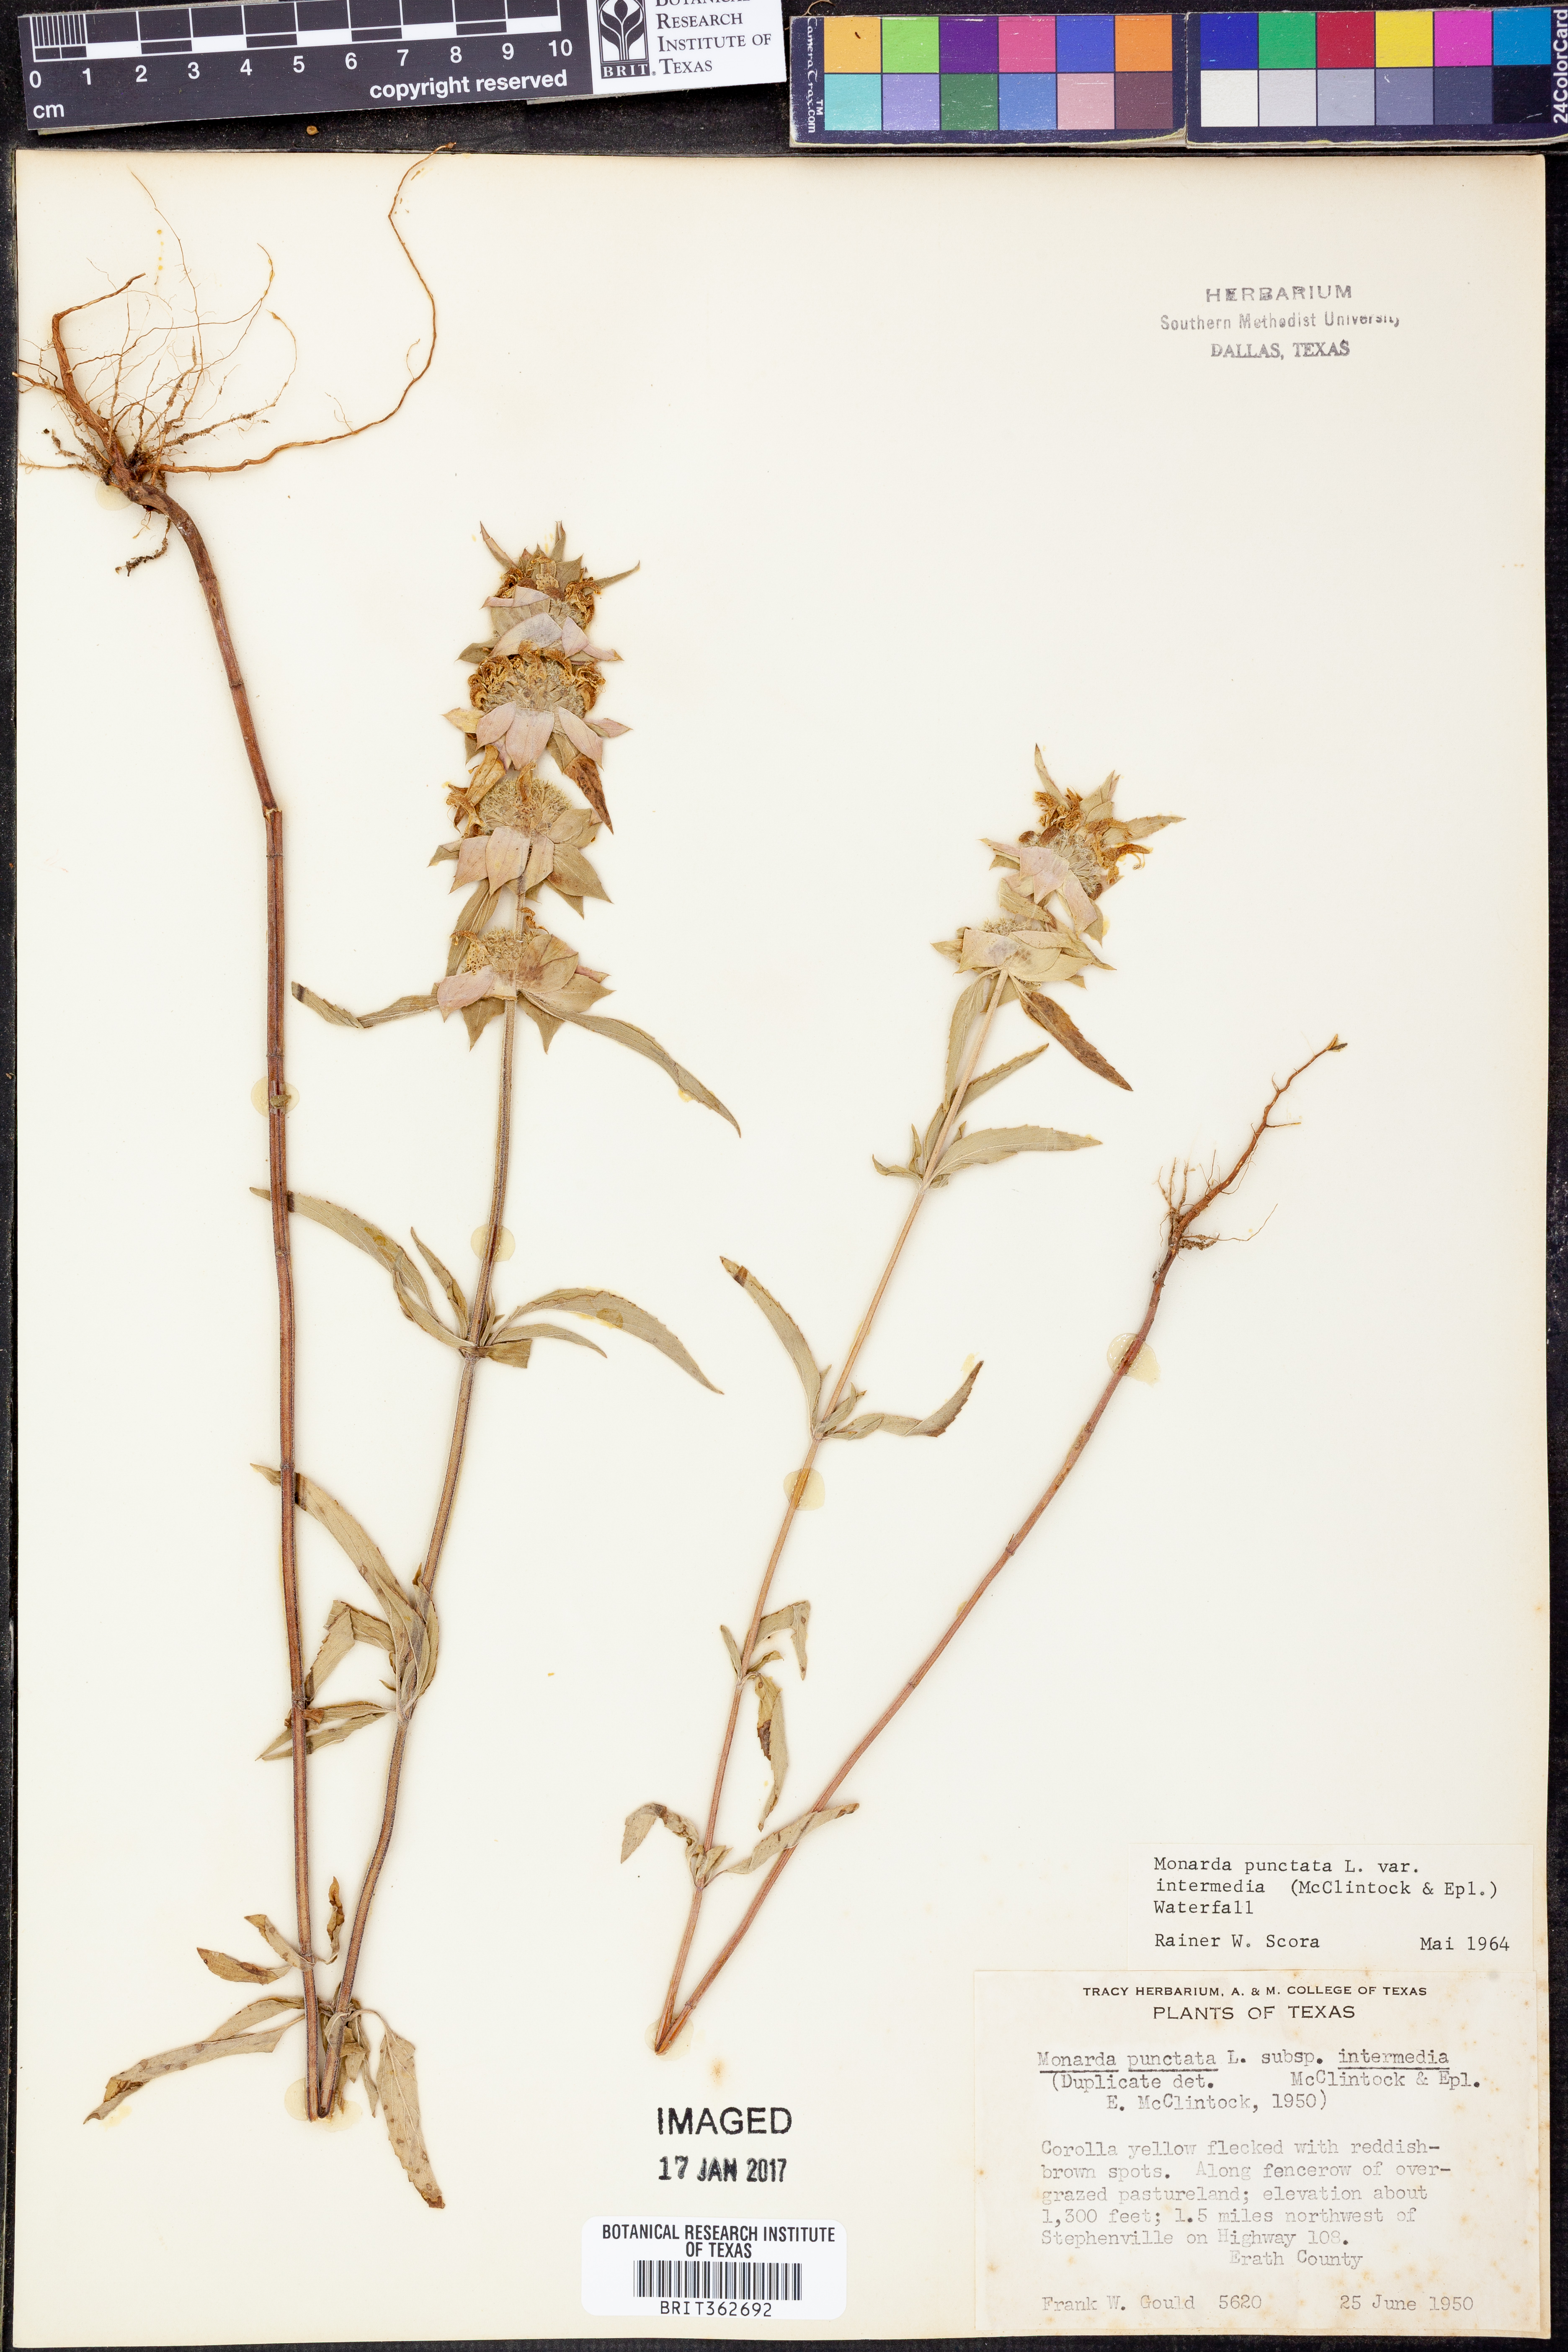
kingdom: Plantae
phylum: Tracheophyta
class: Magnoliopsida
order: Lamiales
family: Lamiaceae
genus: Monarda
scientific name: Monarda punctata
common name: Dotted monarda
